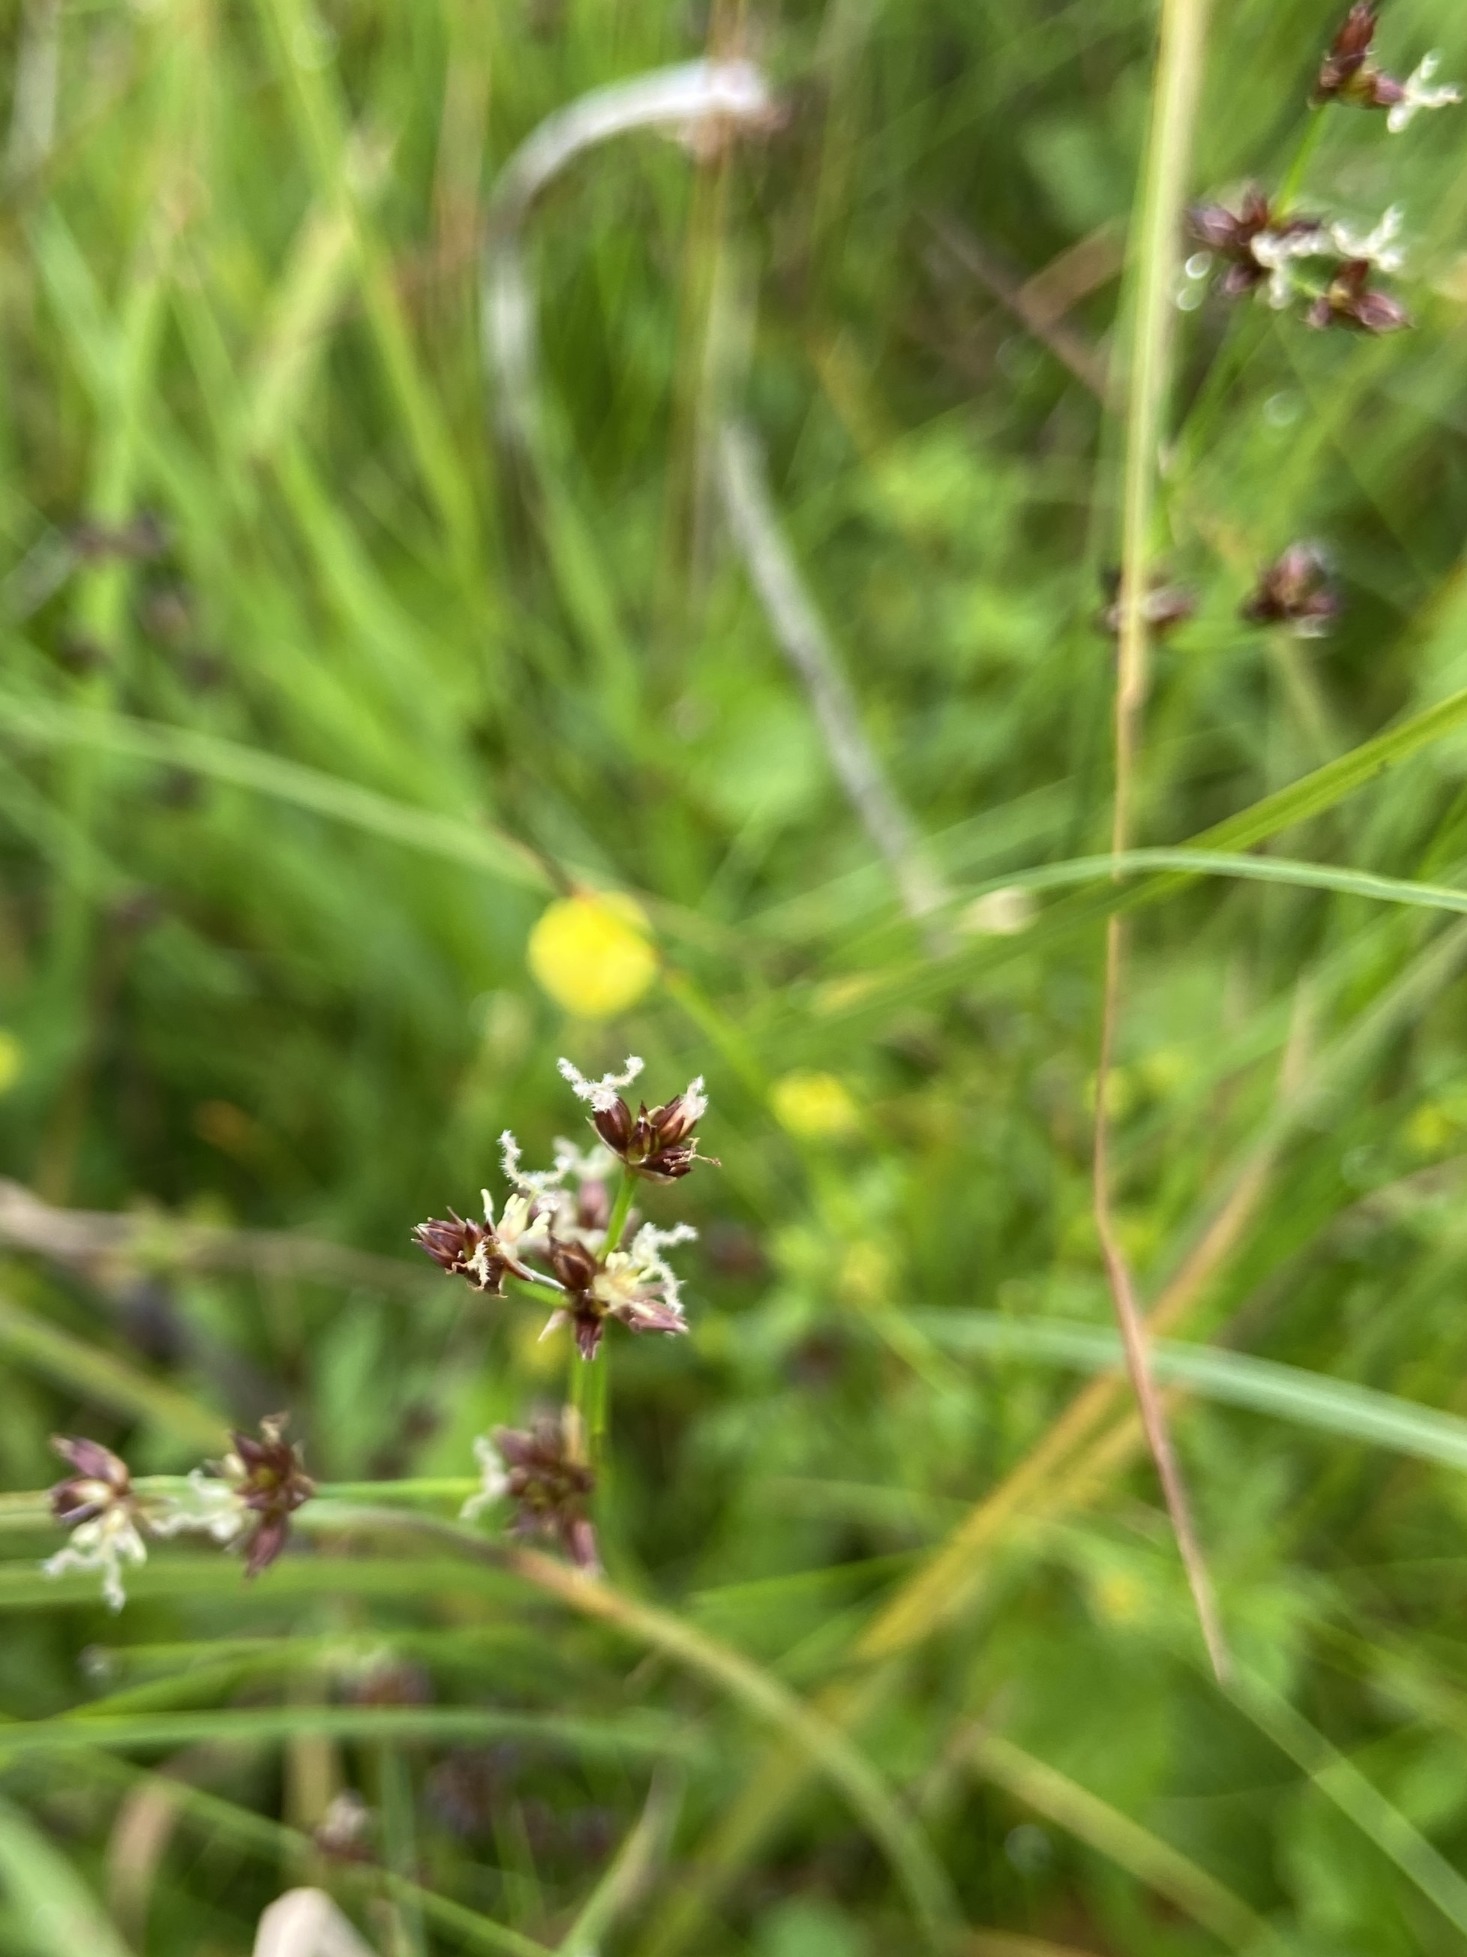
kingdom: Plantae
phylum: Tracheophyta
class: Liliopsida
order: Poales
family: Juncaceae
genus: Juncus
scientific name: Juncus articulatus
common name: Glanskapslet siv
